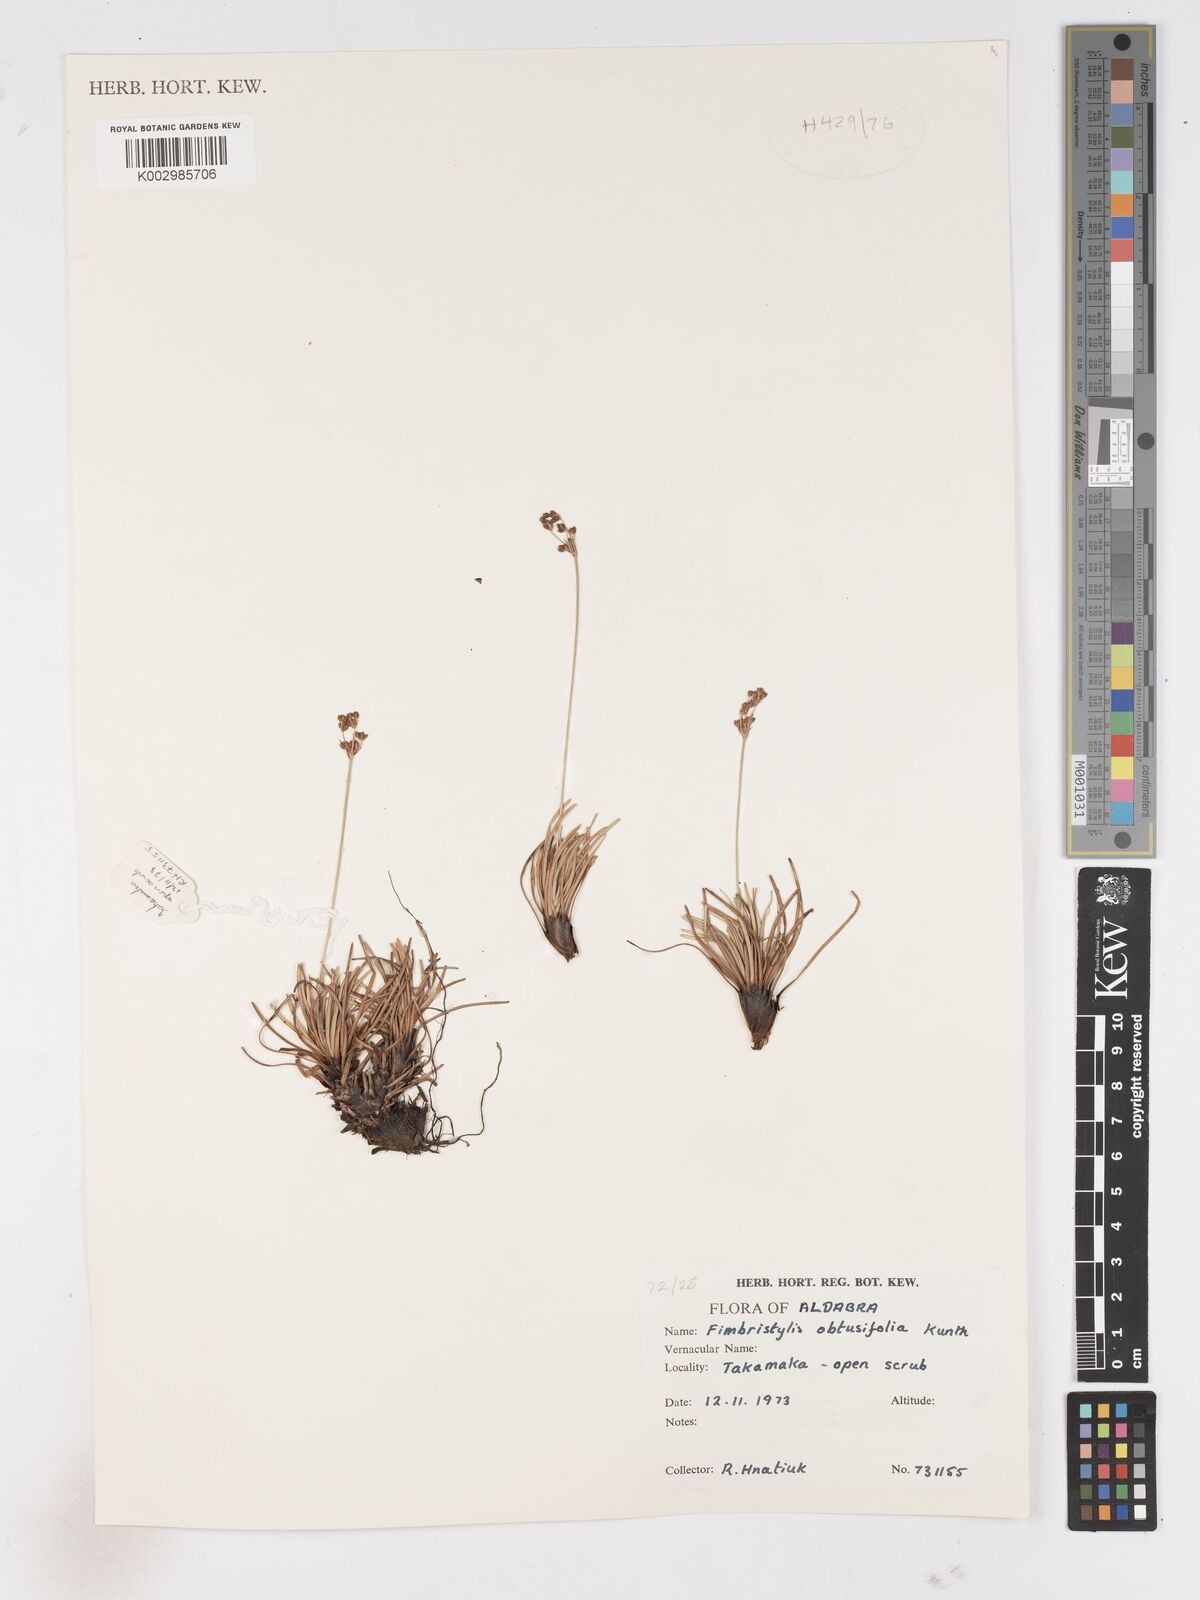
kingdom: Plantae
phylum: Tracheophyta
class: Liliopsida
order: Poales
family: Cyperaceae
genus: Fimbristylis
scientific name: Fimbristylis cymosa
